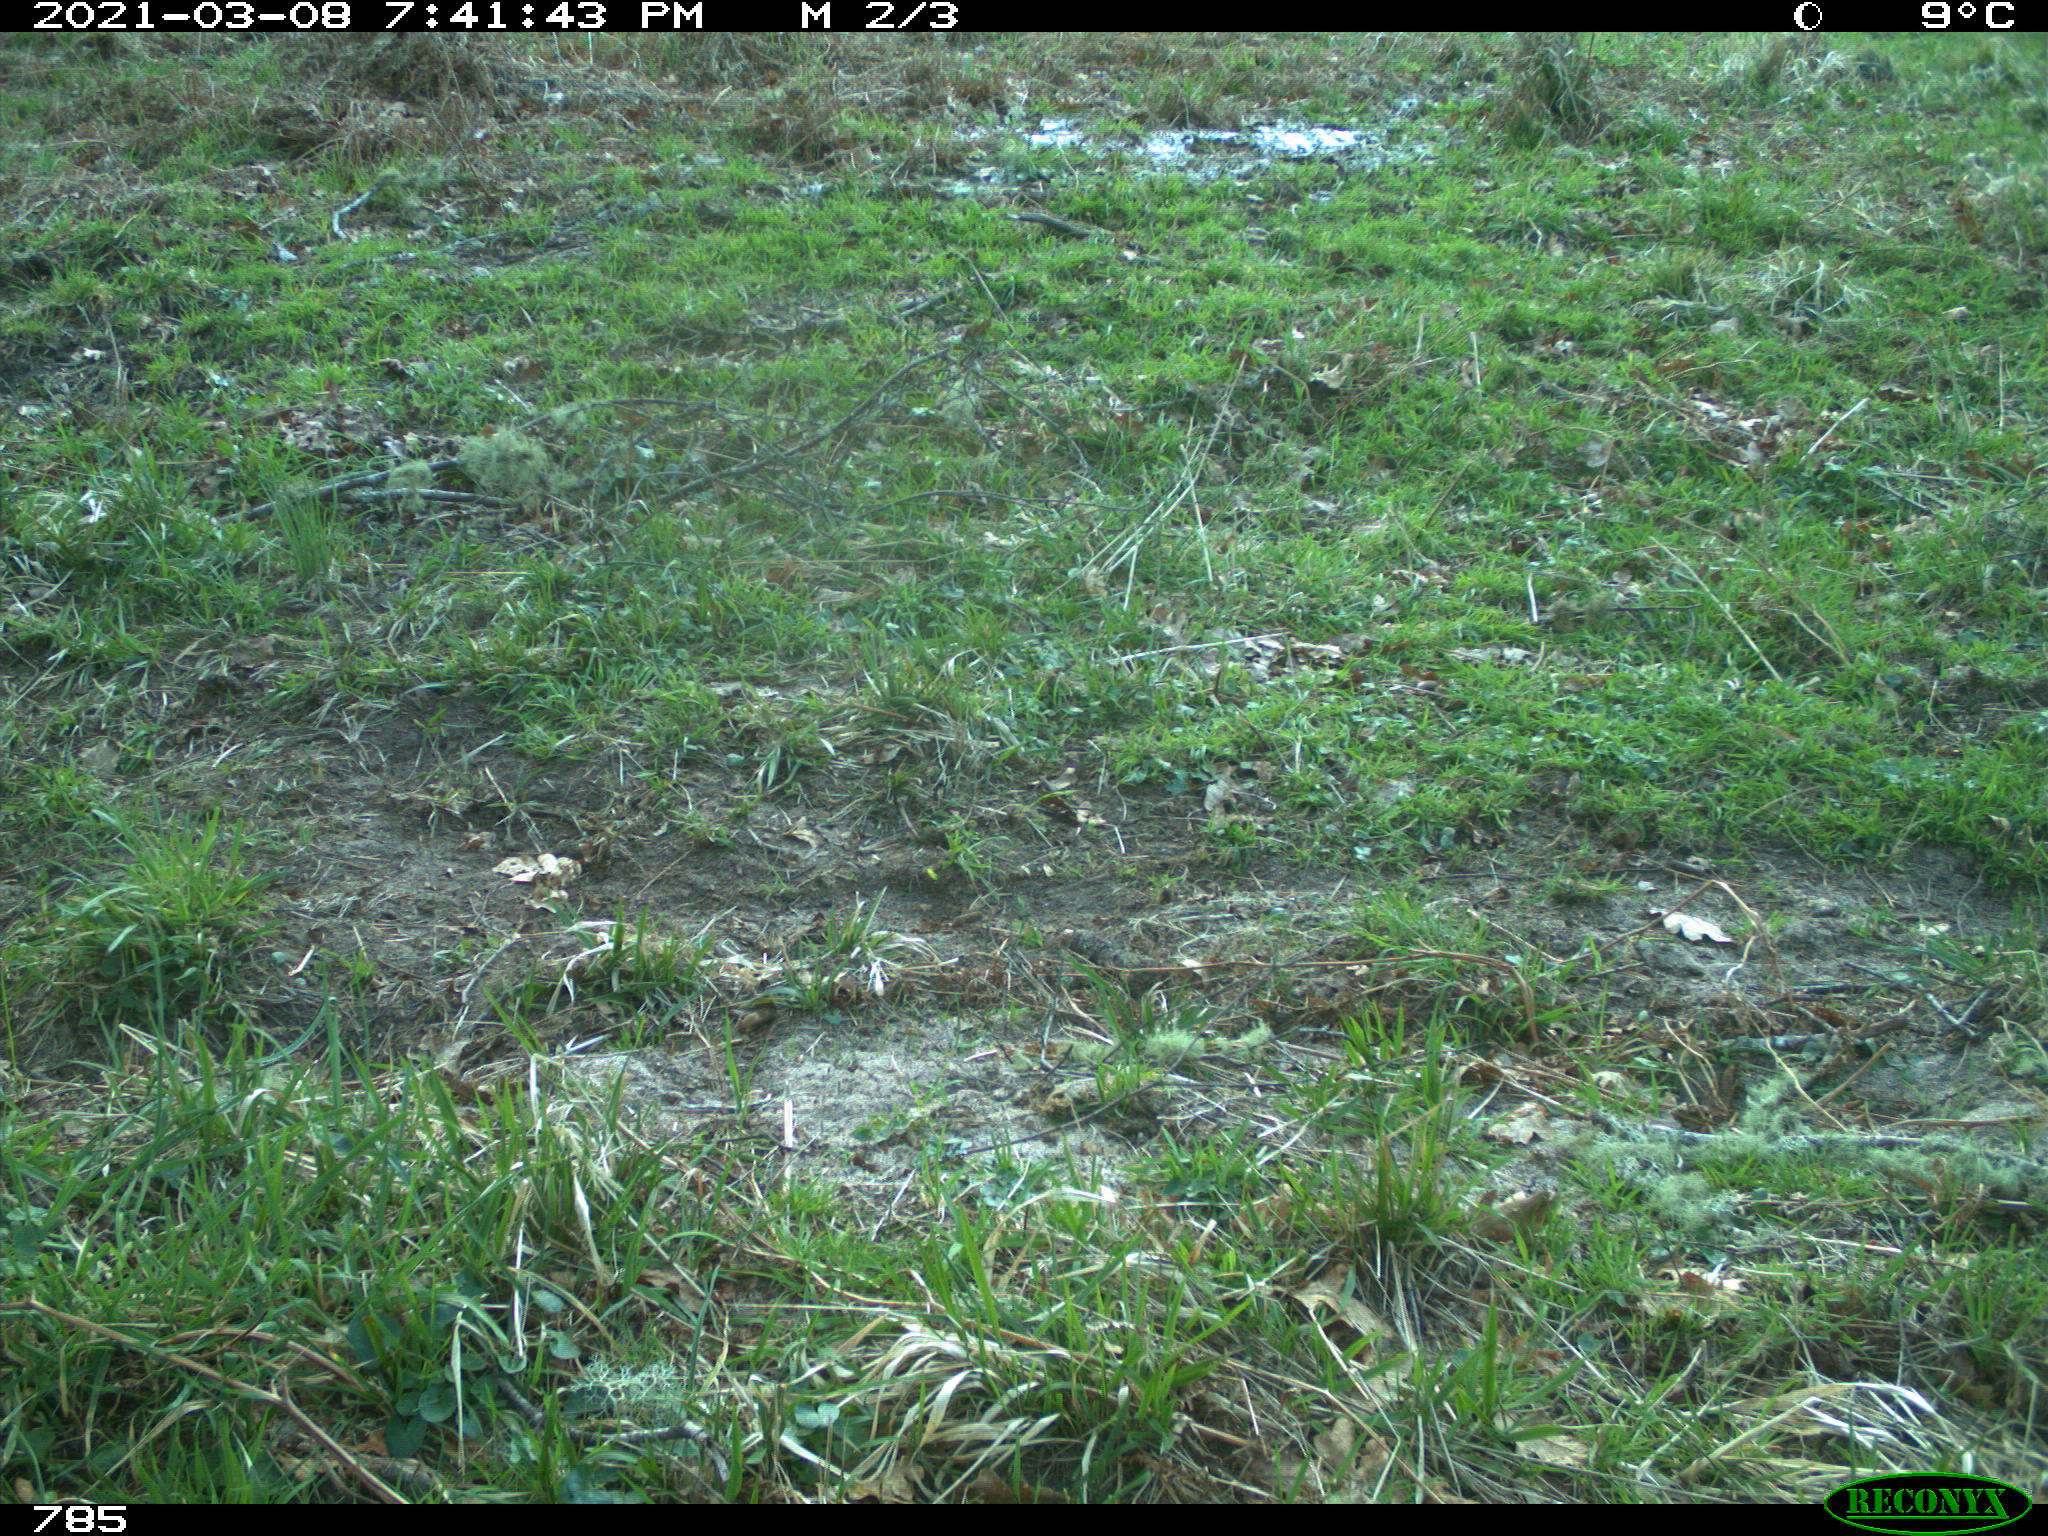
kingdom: Animalia
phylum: Chordata
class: Mammalia
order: Carnivora
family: Canidae
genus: Canis
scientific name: Canis lupus
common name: Gray wolf
